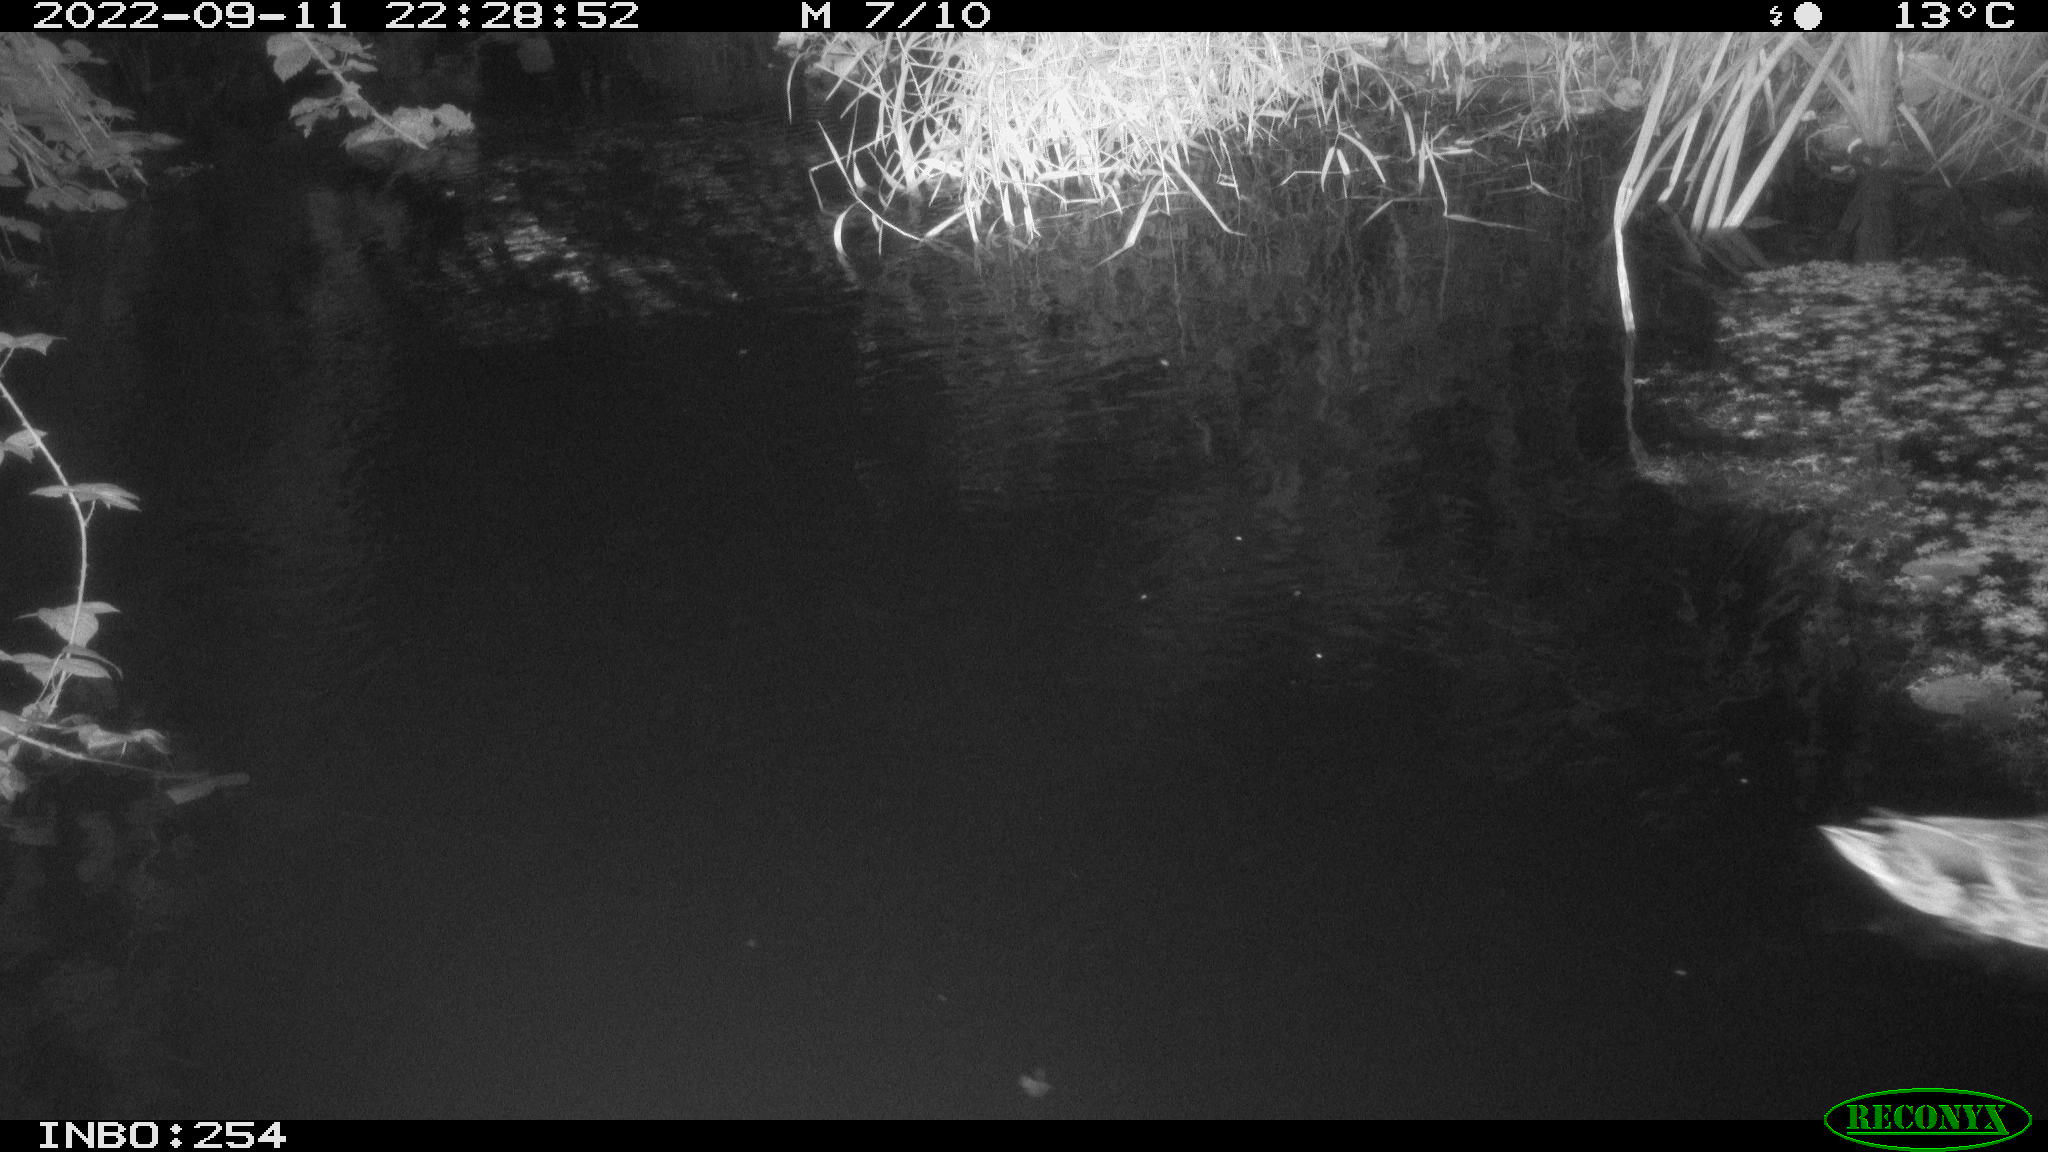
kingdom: Animalia
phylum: Chordata
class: Aves
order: Anseriformes
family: Anatidae
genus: Anas
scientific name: Anas
